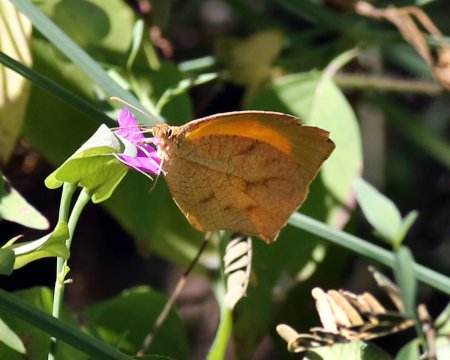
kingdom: Animalia
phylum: Arthropoda
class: Insecta
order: Lepidoptera
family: Pieridae
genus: Pyrisitia
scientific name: Pyrisitia proterpia
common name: Tailed Orange
